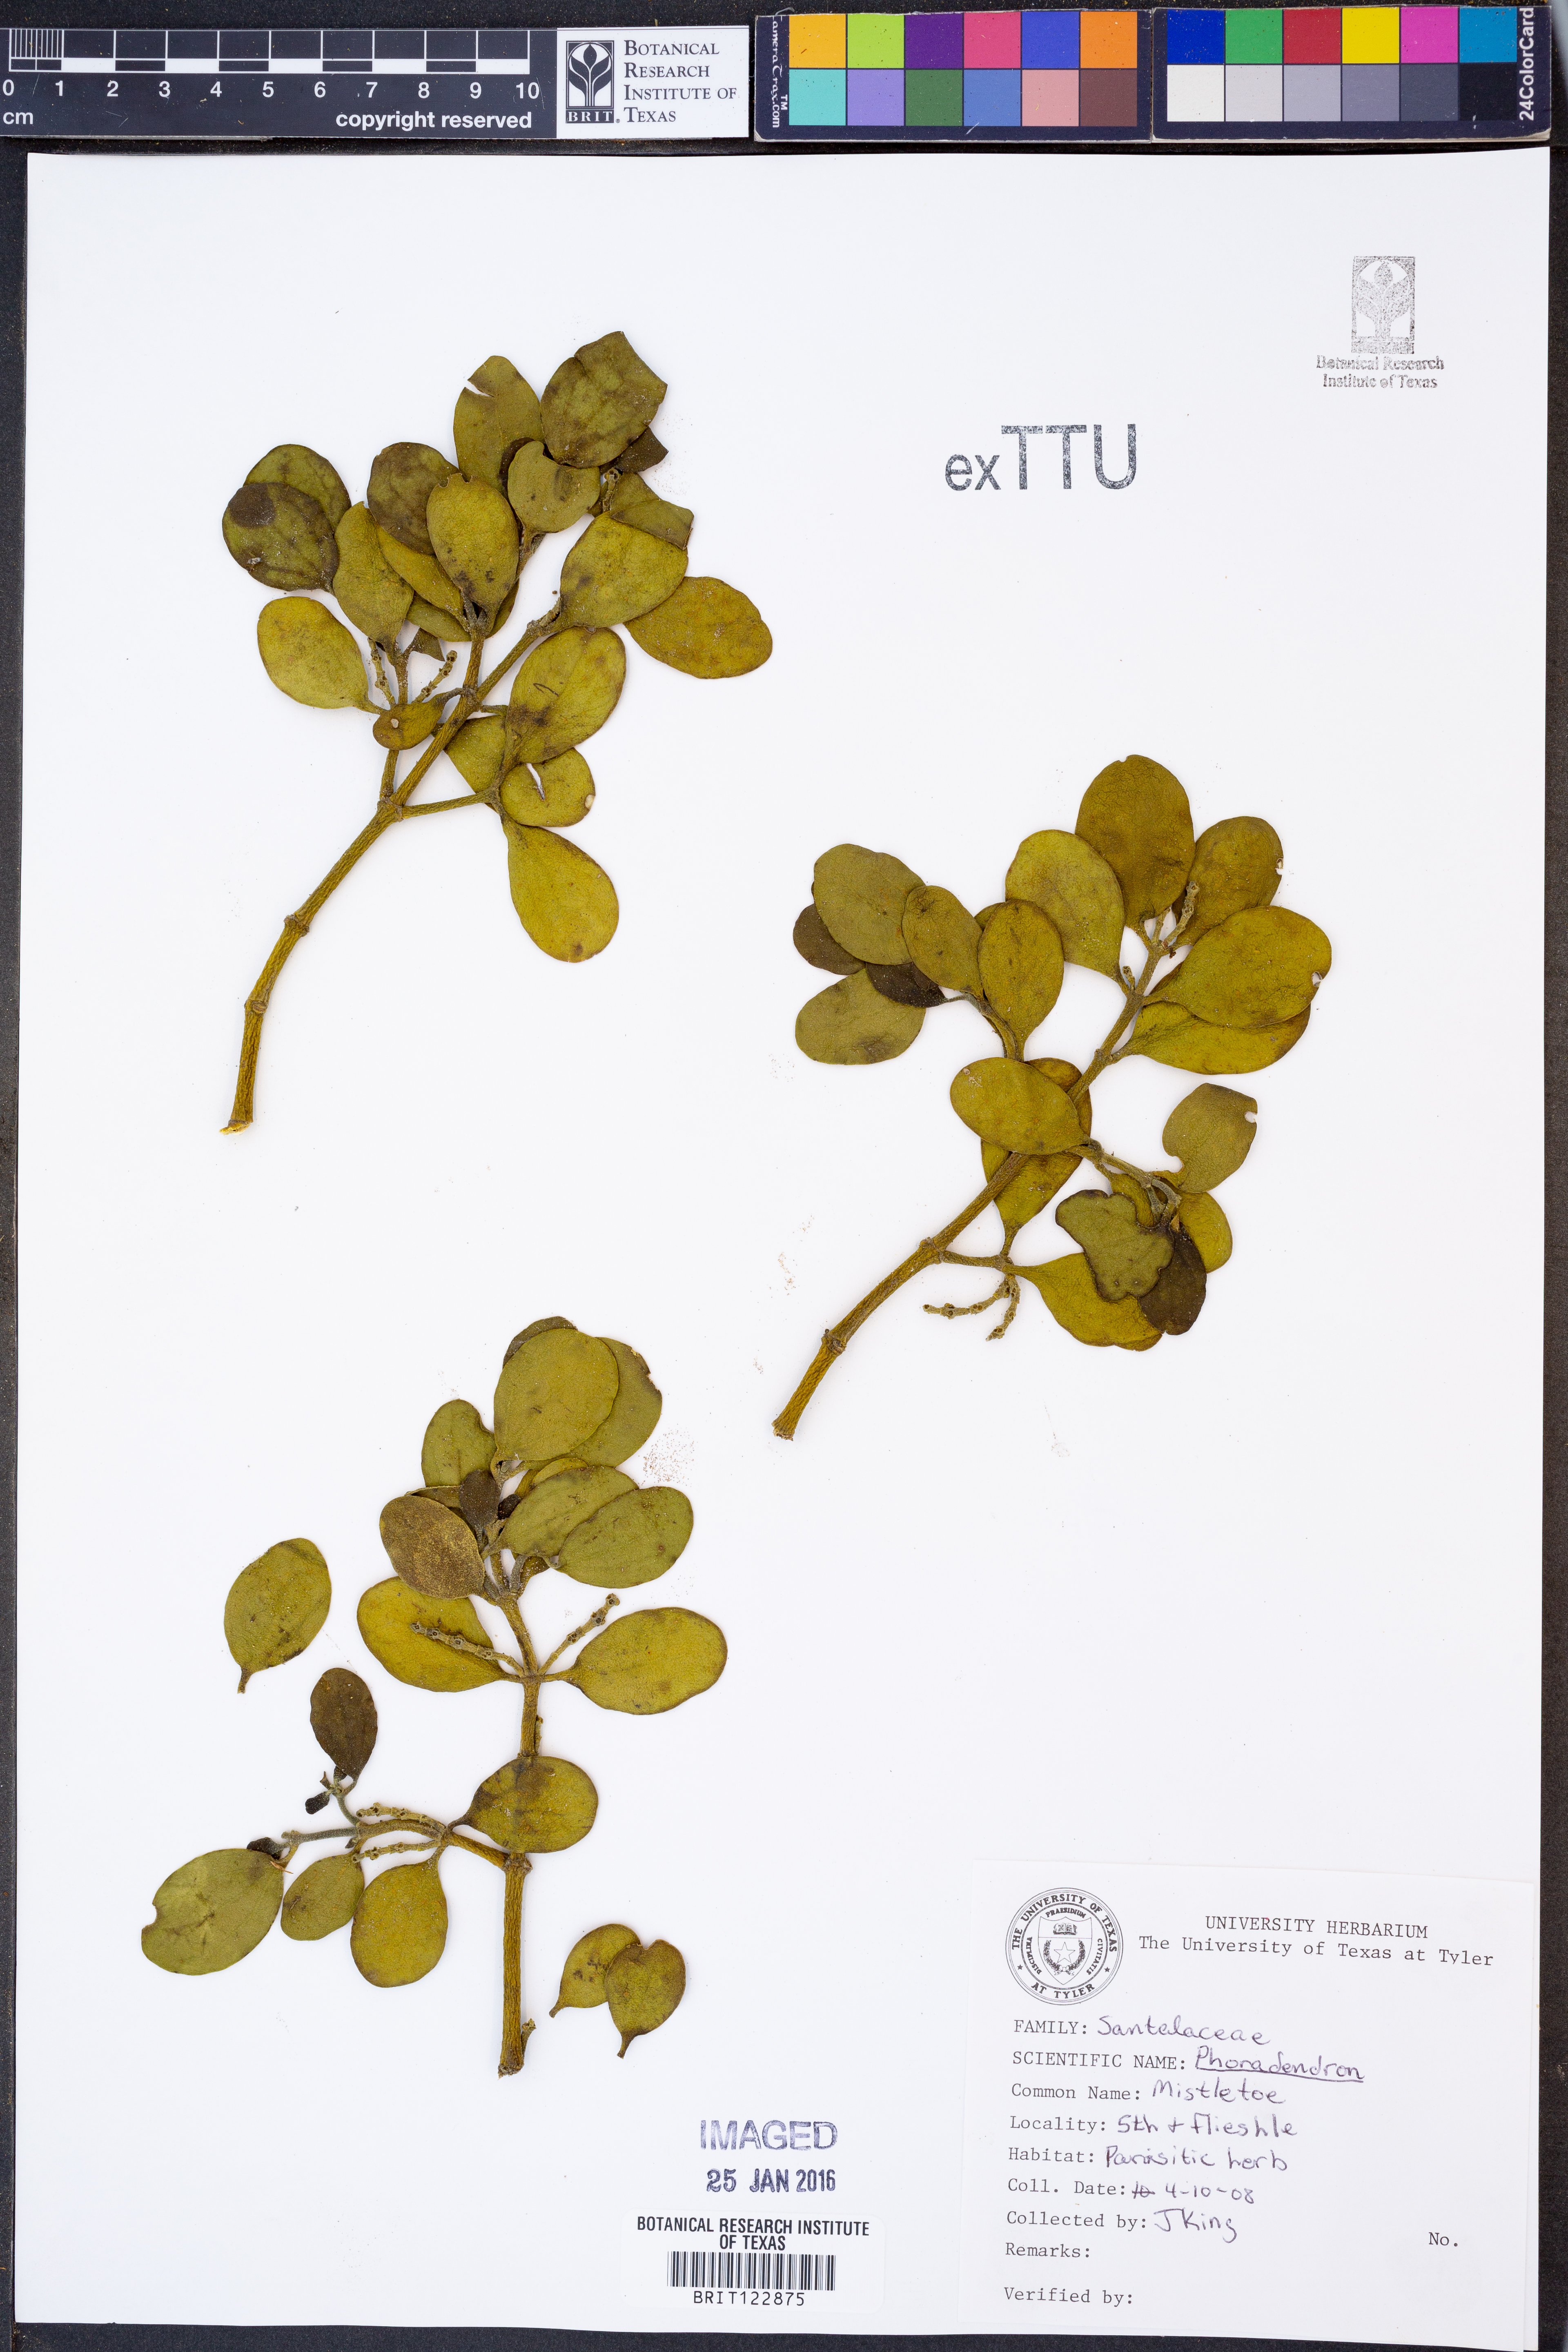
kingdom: Plantae
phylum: Tracheophyta
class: Magnoliopsida
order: Santalales
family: Viscaceae
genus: Phoradendron
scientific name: Phoradendron
